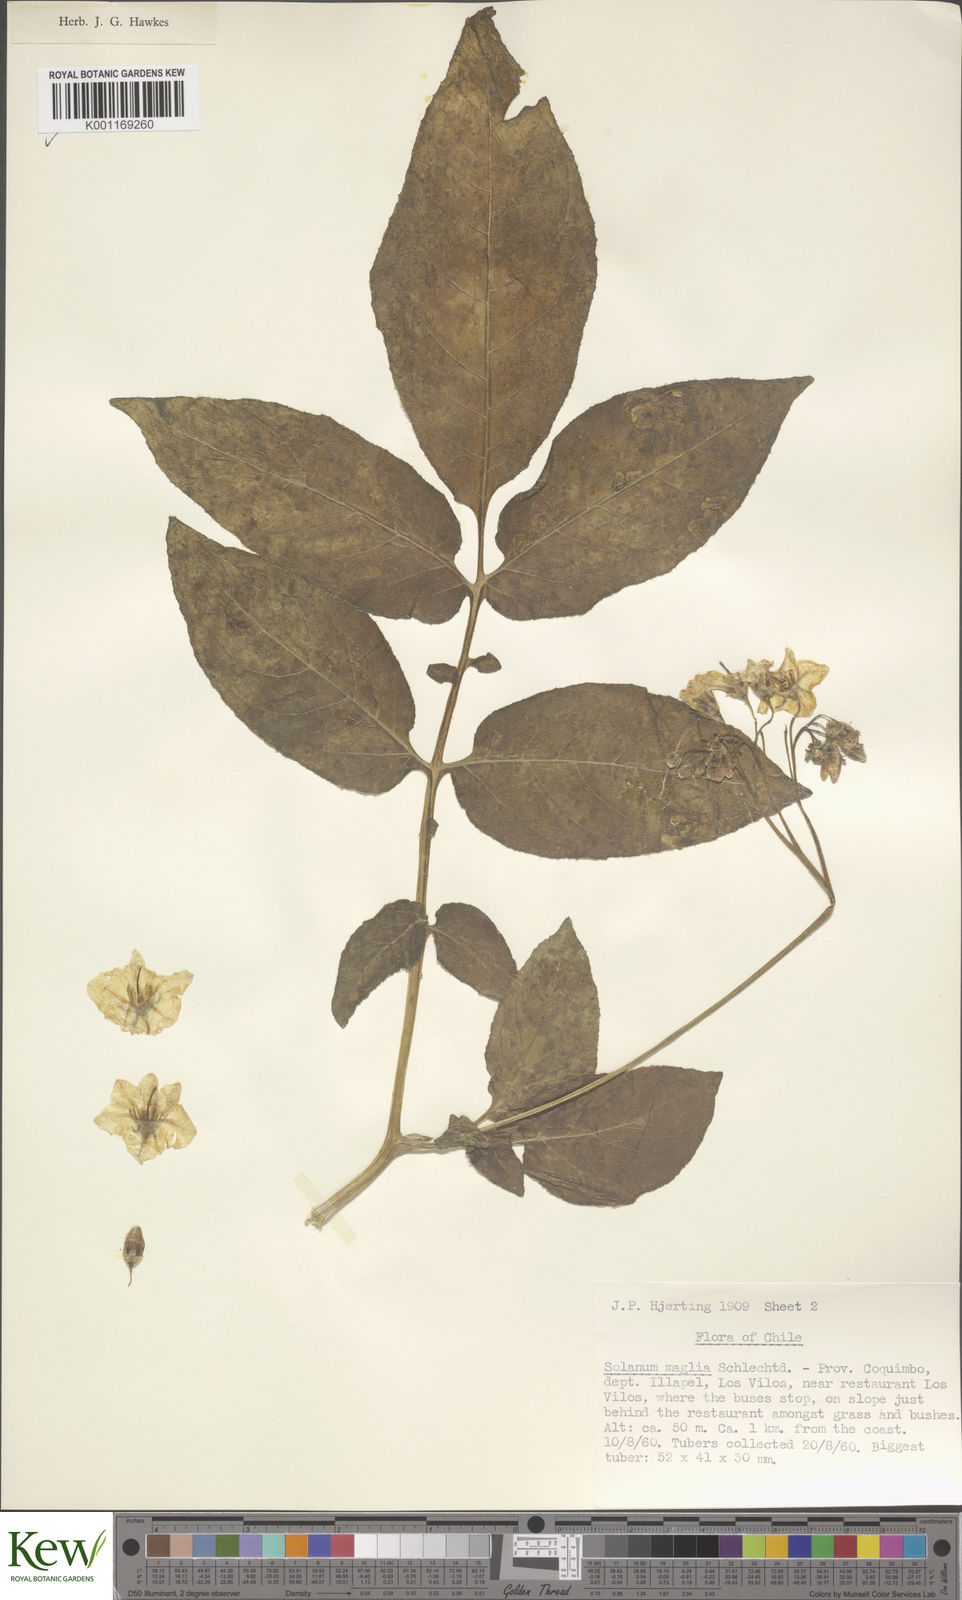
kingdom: Plantae
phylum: Tracheophyta
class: Magnoliopsida
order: Solanales
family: Solanaceae
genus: Solanum
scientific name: Solanum maglia
